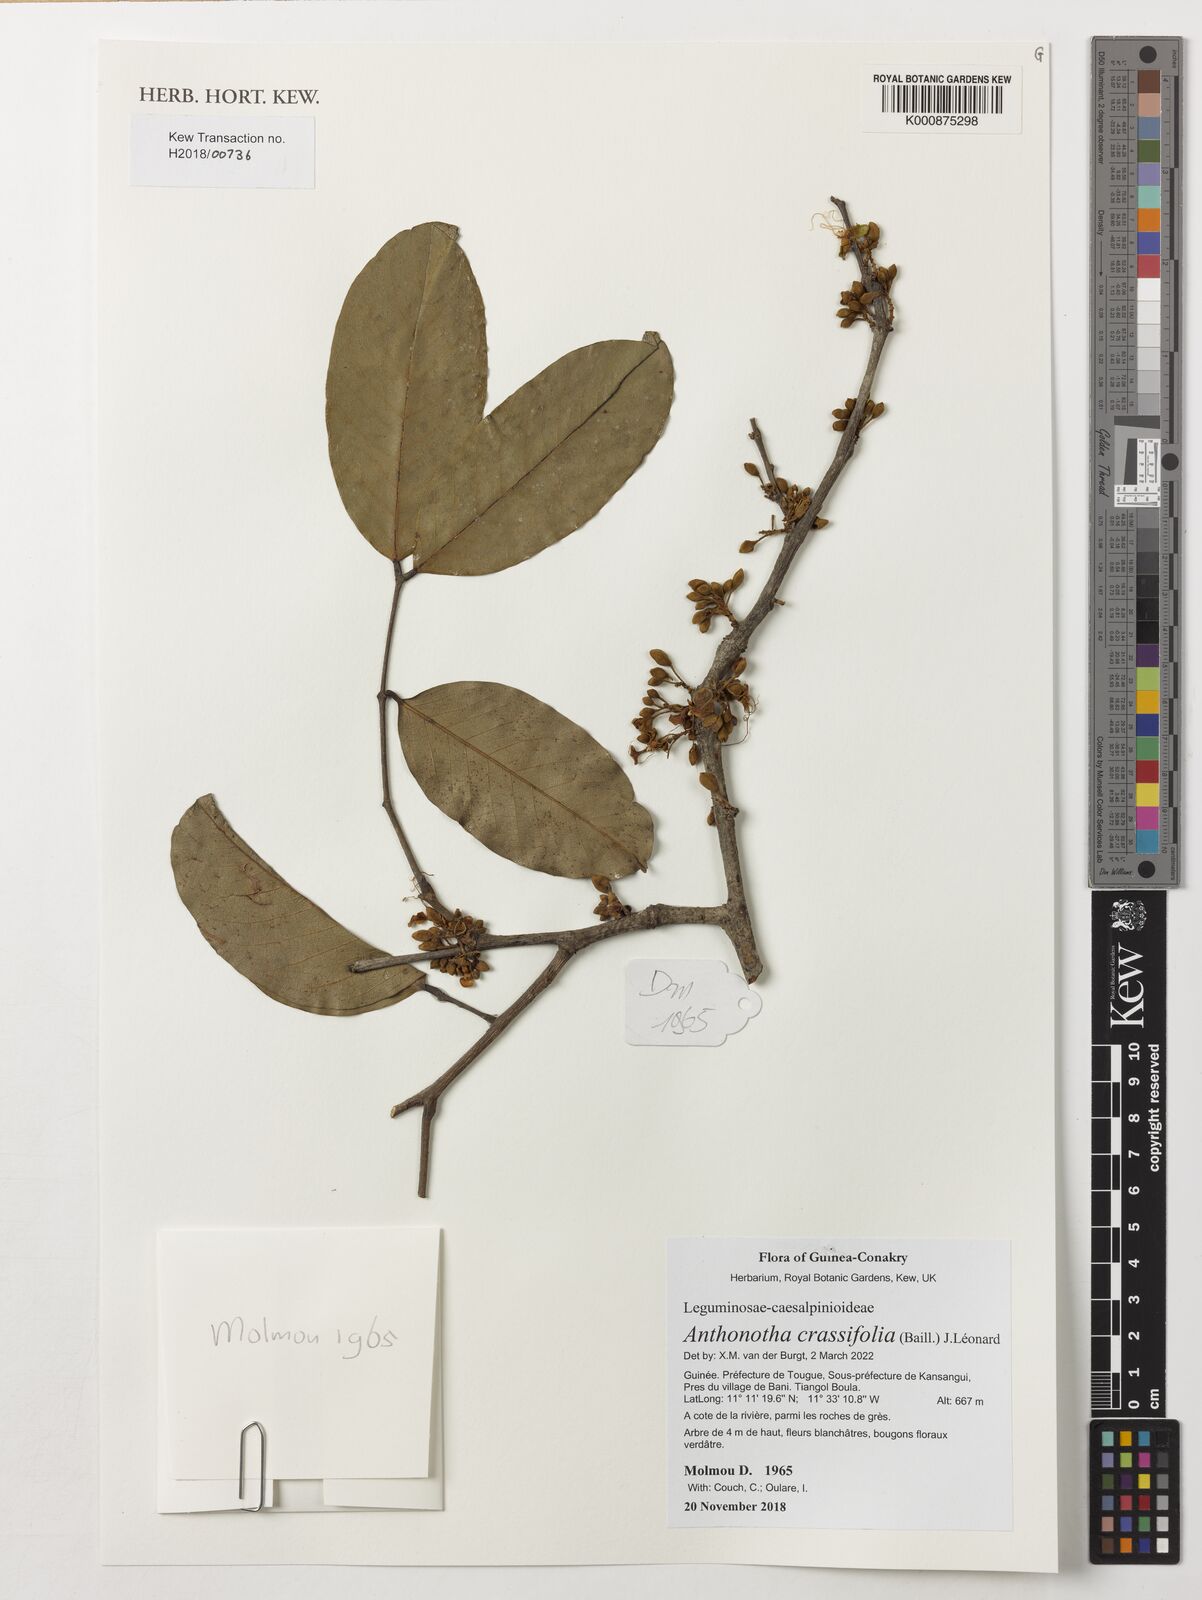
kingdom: Plantae
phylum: Tracheophyta
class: Magnoliopsida
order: Fabales
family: Fabaceae
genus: Anthonotha
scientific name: Anthonotha crassifolia
